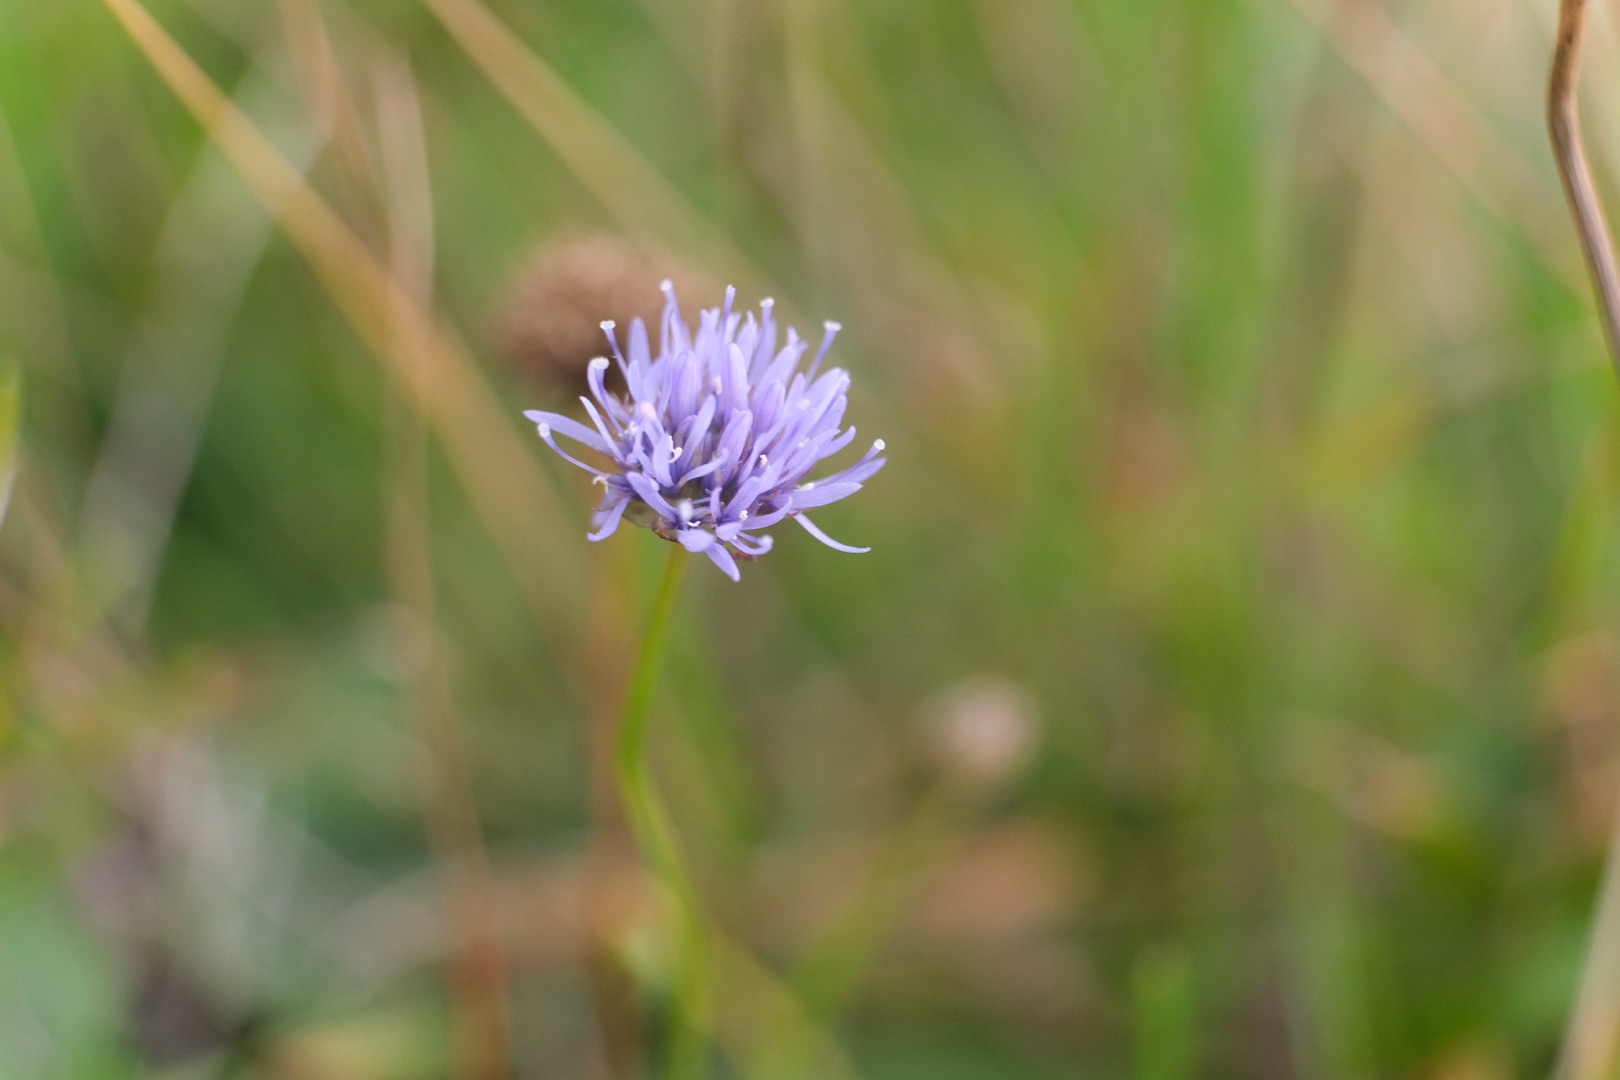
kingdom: Plantae
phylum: Tracheophyta
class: Magnoliopsida
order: Asterales
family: Campanulaceae
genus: Jasione
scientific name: Jasione montana
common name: Blåmunke
